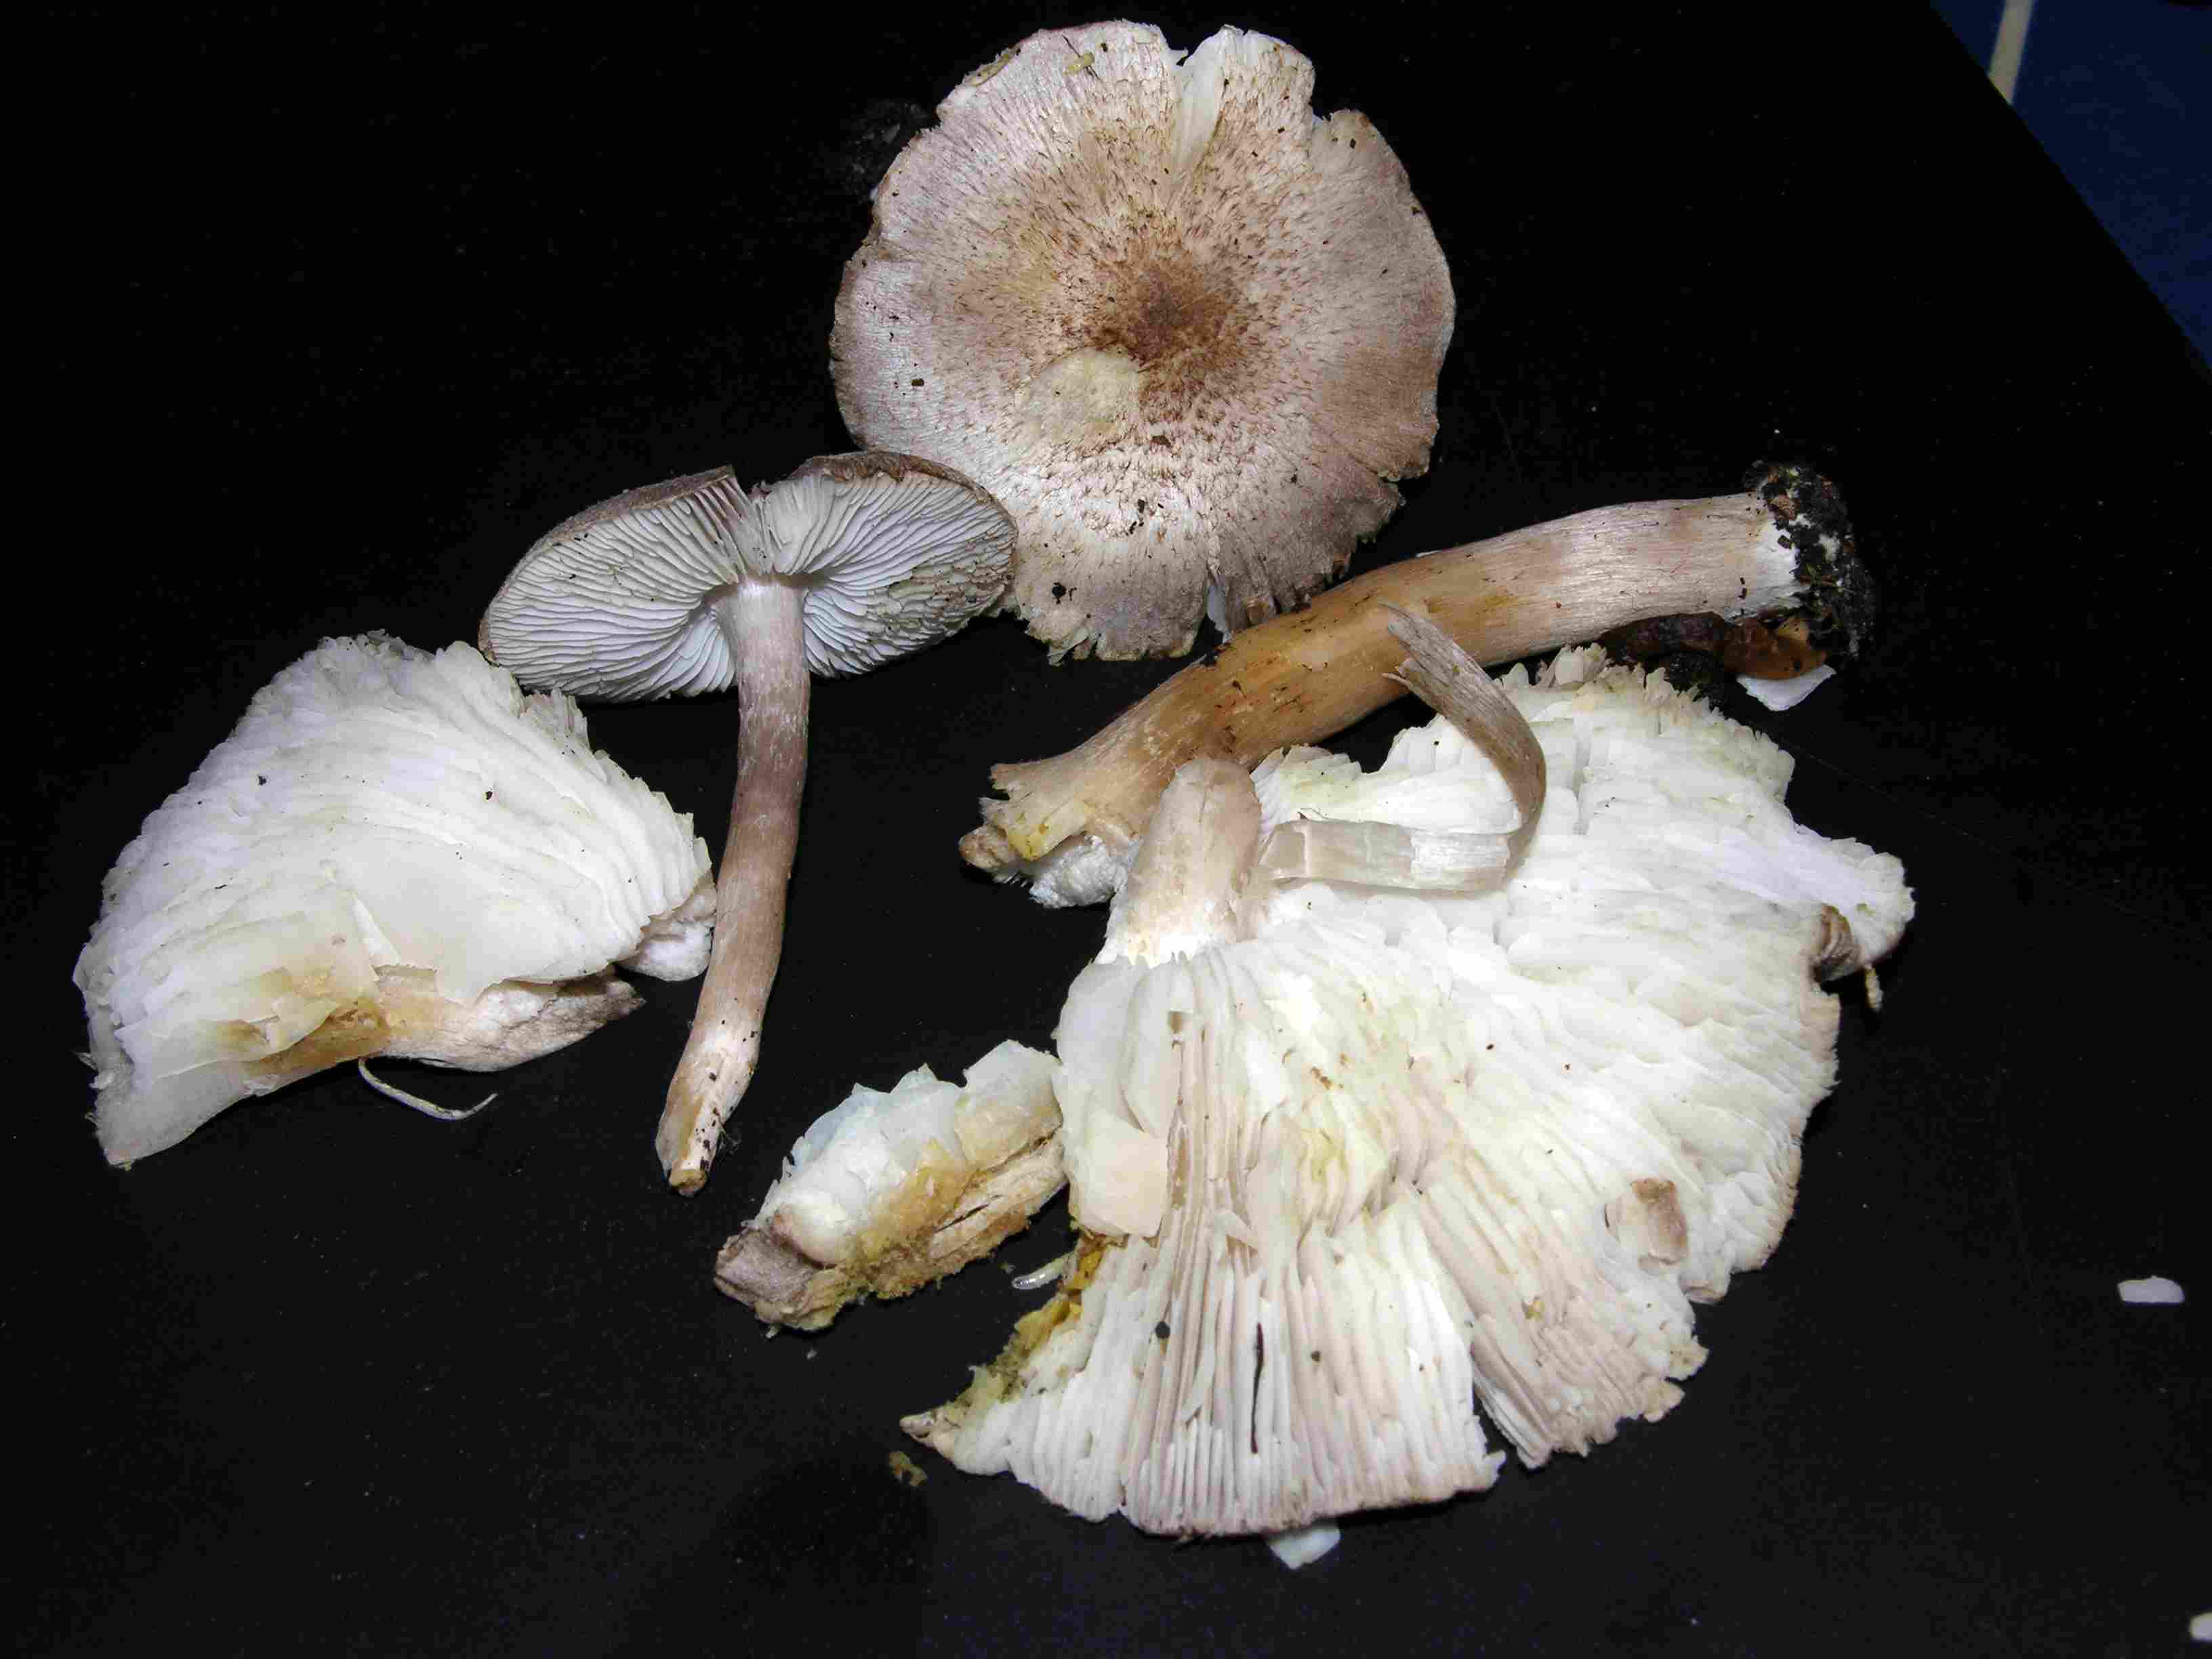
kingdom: Fungi
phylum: Basidiomycota
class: Agaricomycetes
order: Agaricales
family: Tricholomataceae
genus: Tricholoma
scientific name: Tricholoma scalpturatum
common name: gulplettet ridderhat
